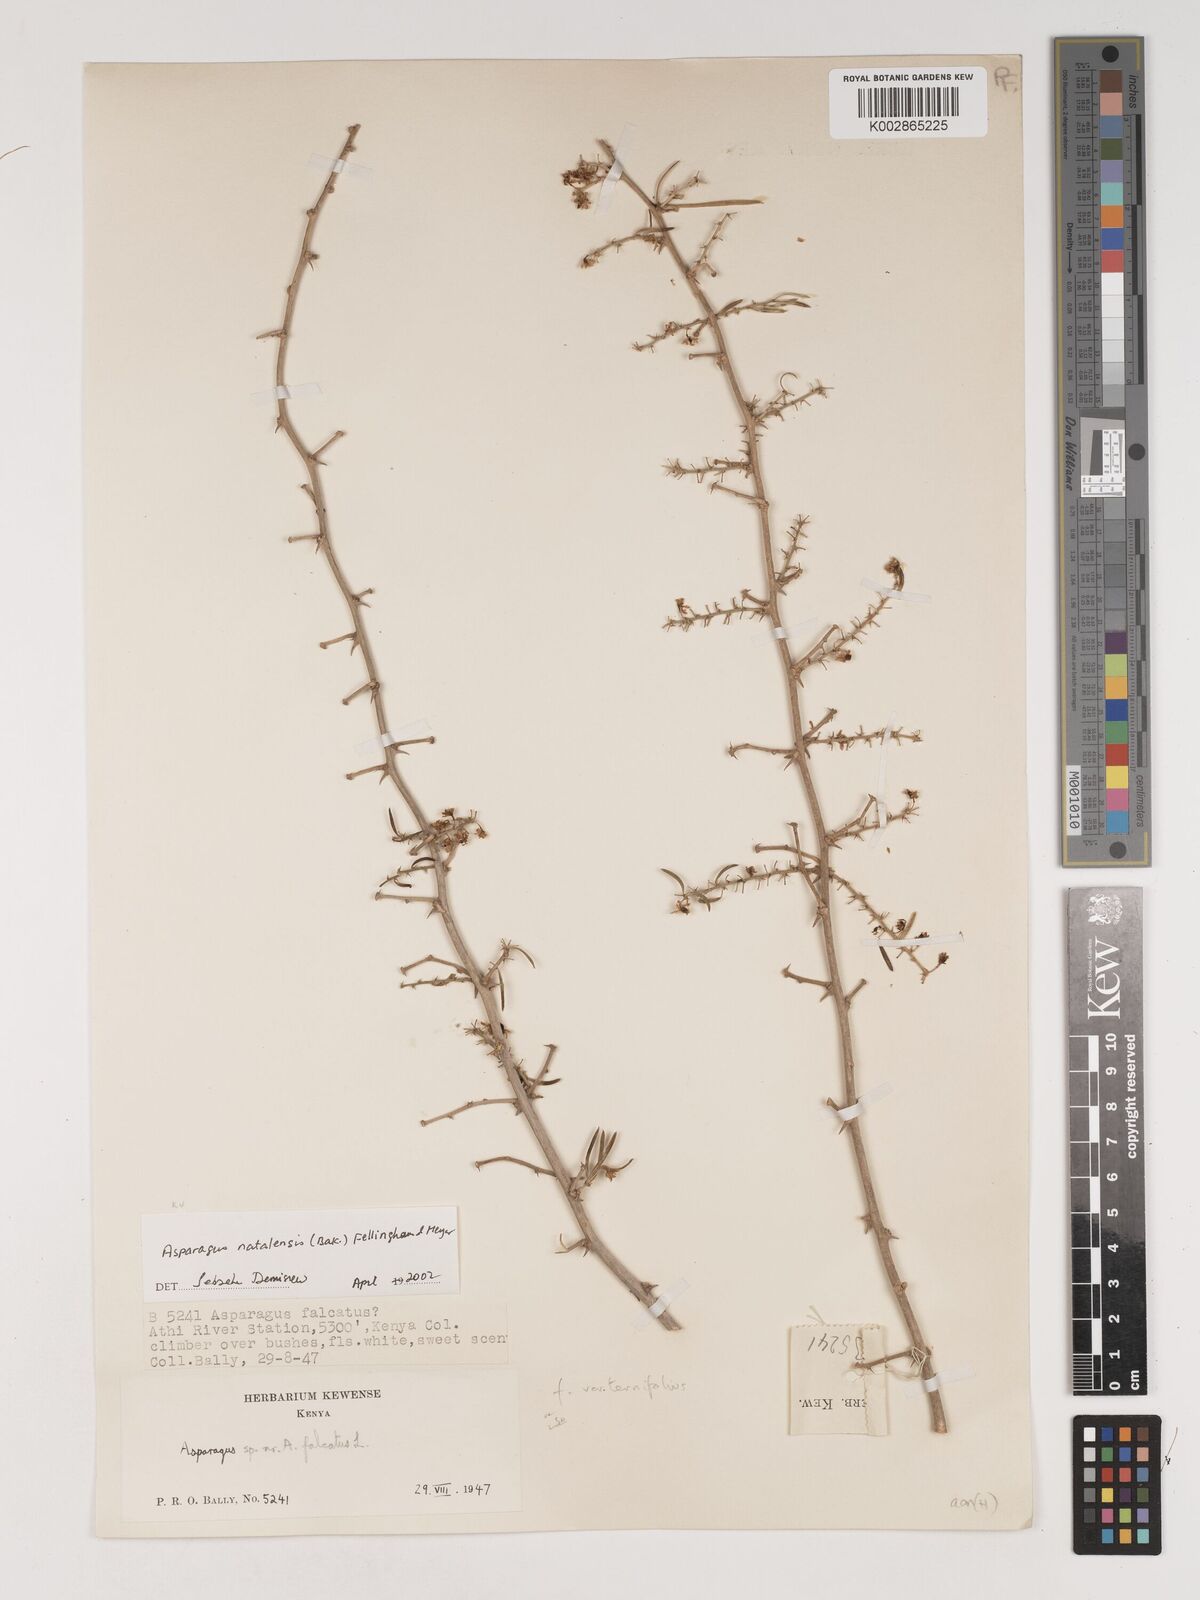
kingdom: Plantae
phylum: Tracheophyta
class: Liliopsida
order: Asparagales
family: Asparagaceae
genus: Asparagus
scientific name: Asparagus natalensis
